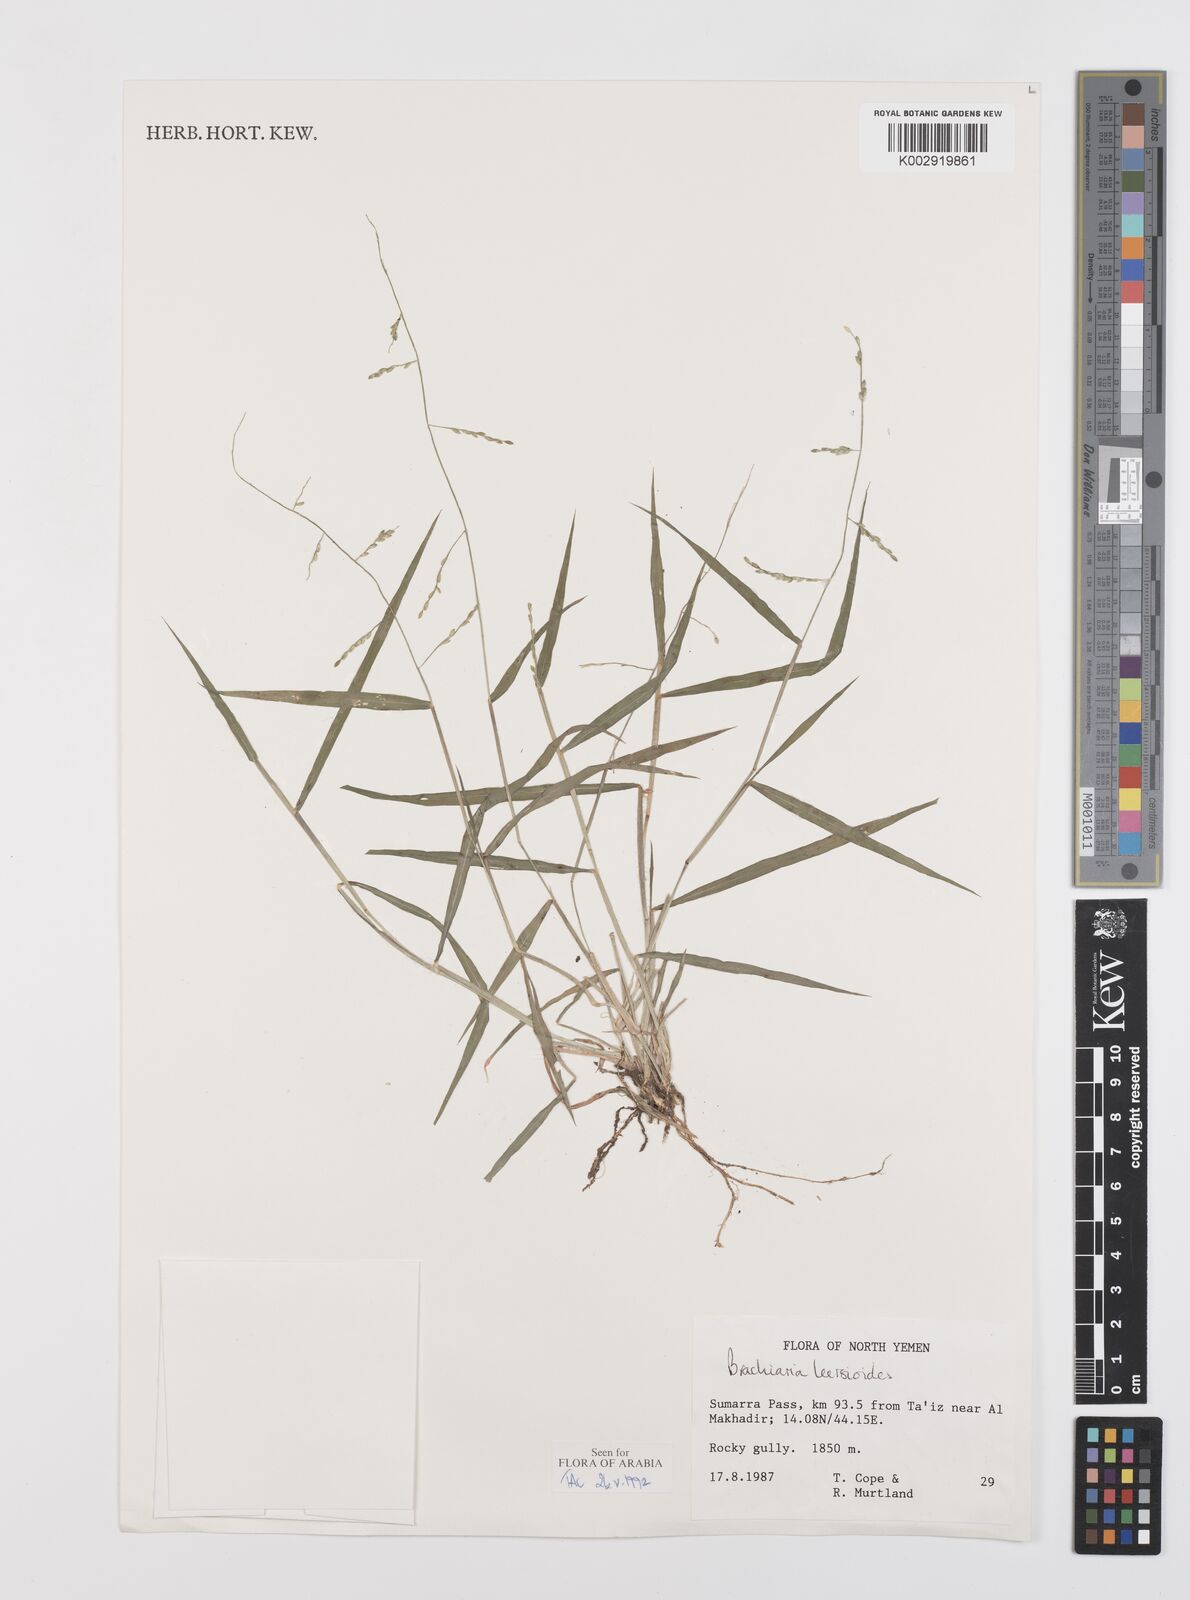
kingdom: Plantae
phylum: Tracheophyta
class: Liliopsida
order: Poales
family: Poaceae
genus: Urochloa
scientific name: Urochloa leersioides
